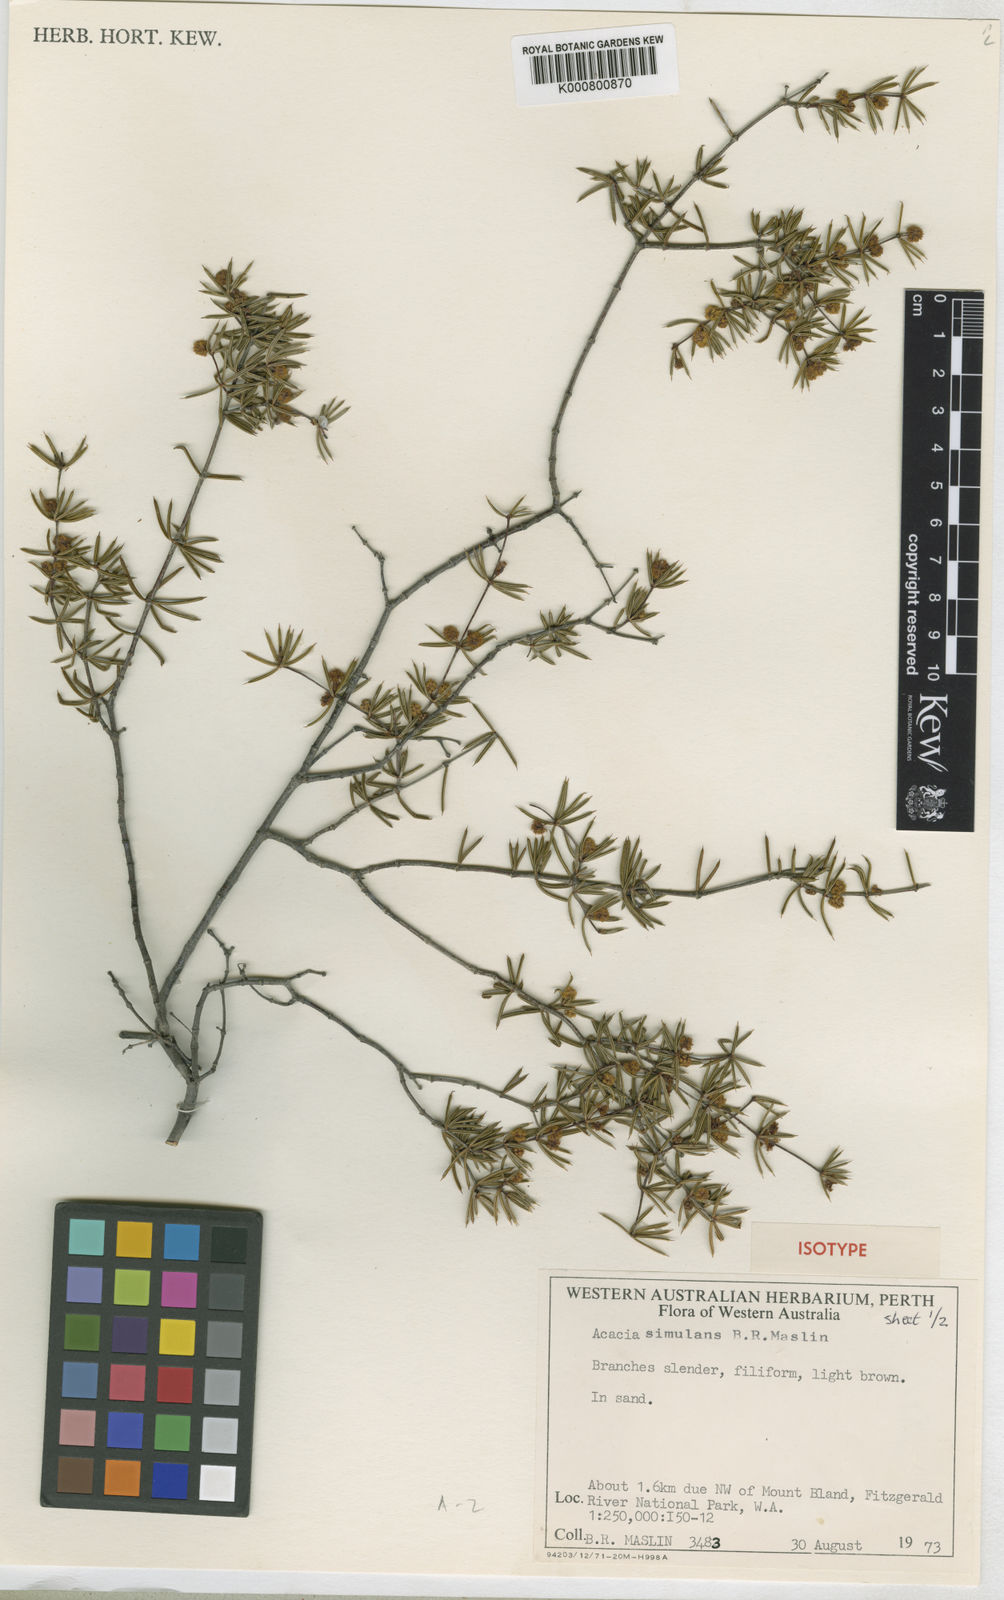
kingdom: Plantae
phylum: Tracheophyta
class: Magnoliopsida
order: Fabales
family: Fabaceae
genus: Acacia
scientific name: Acacia simulans
